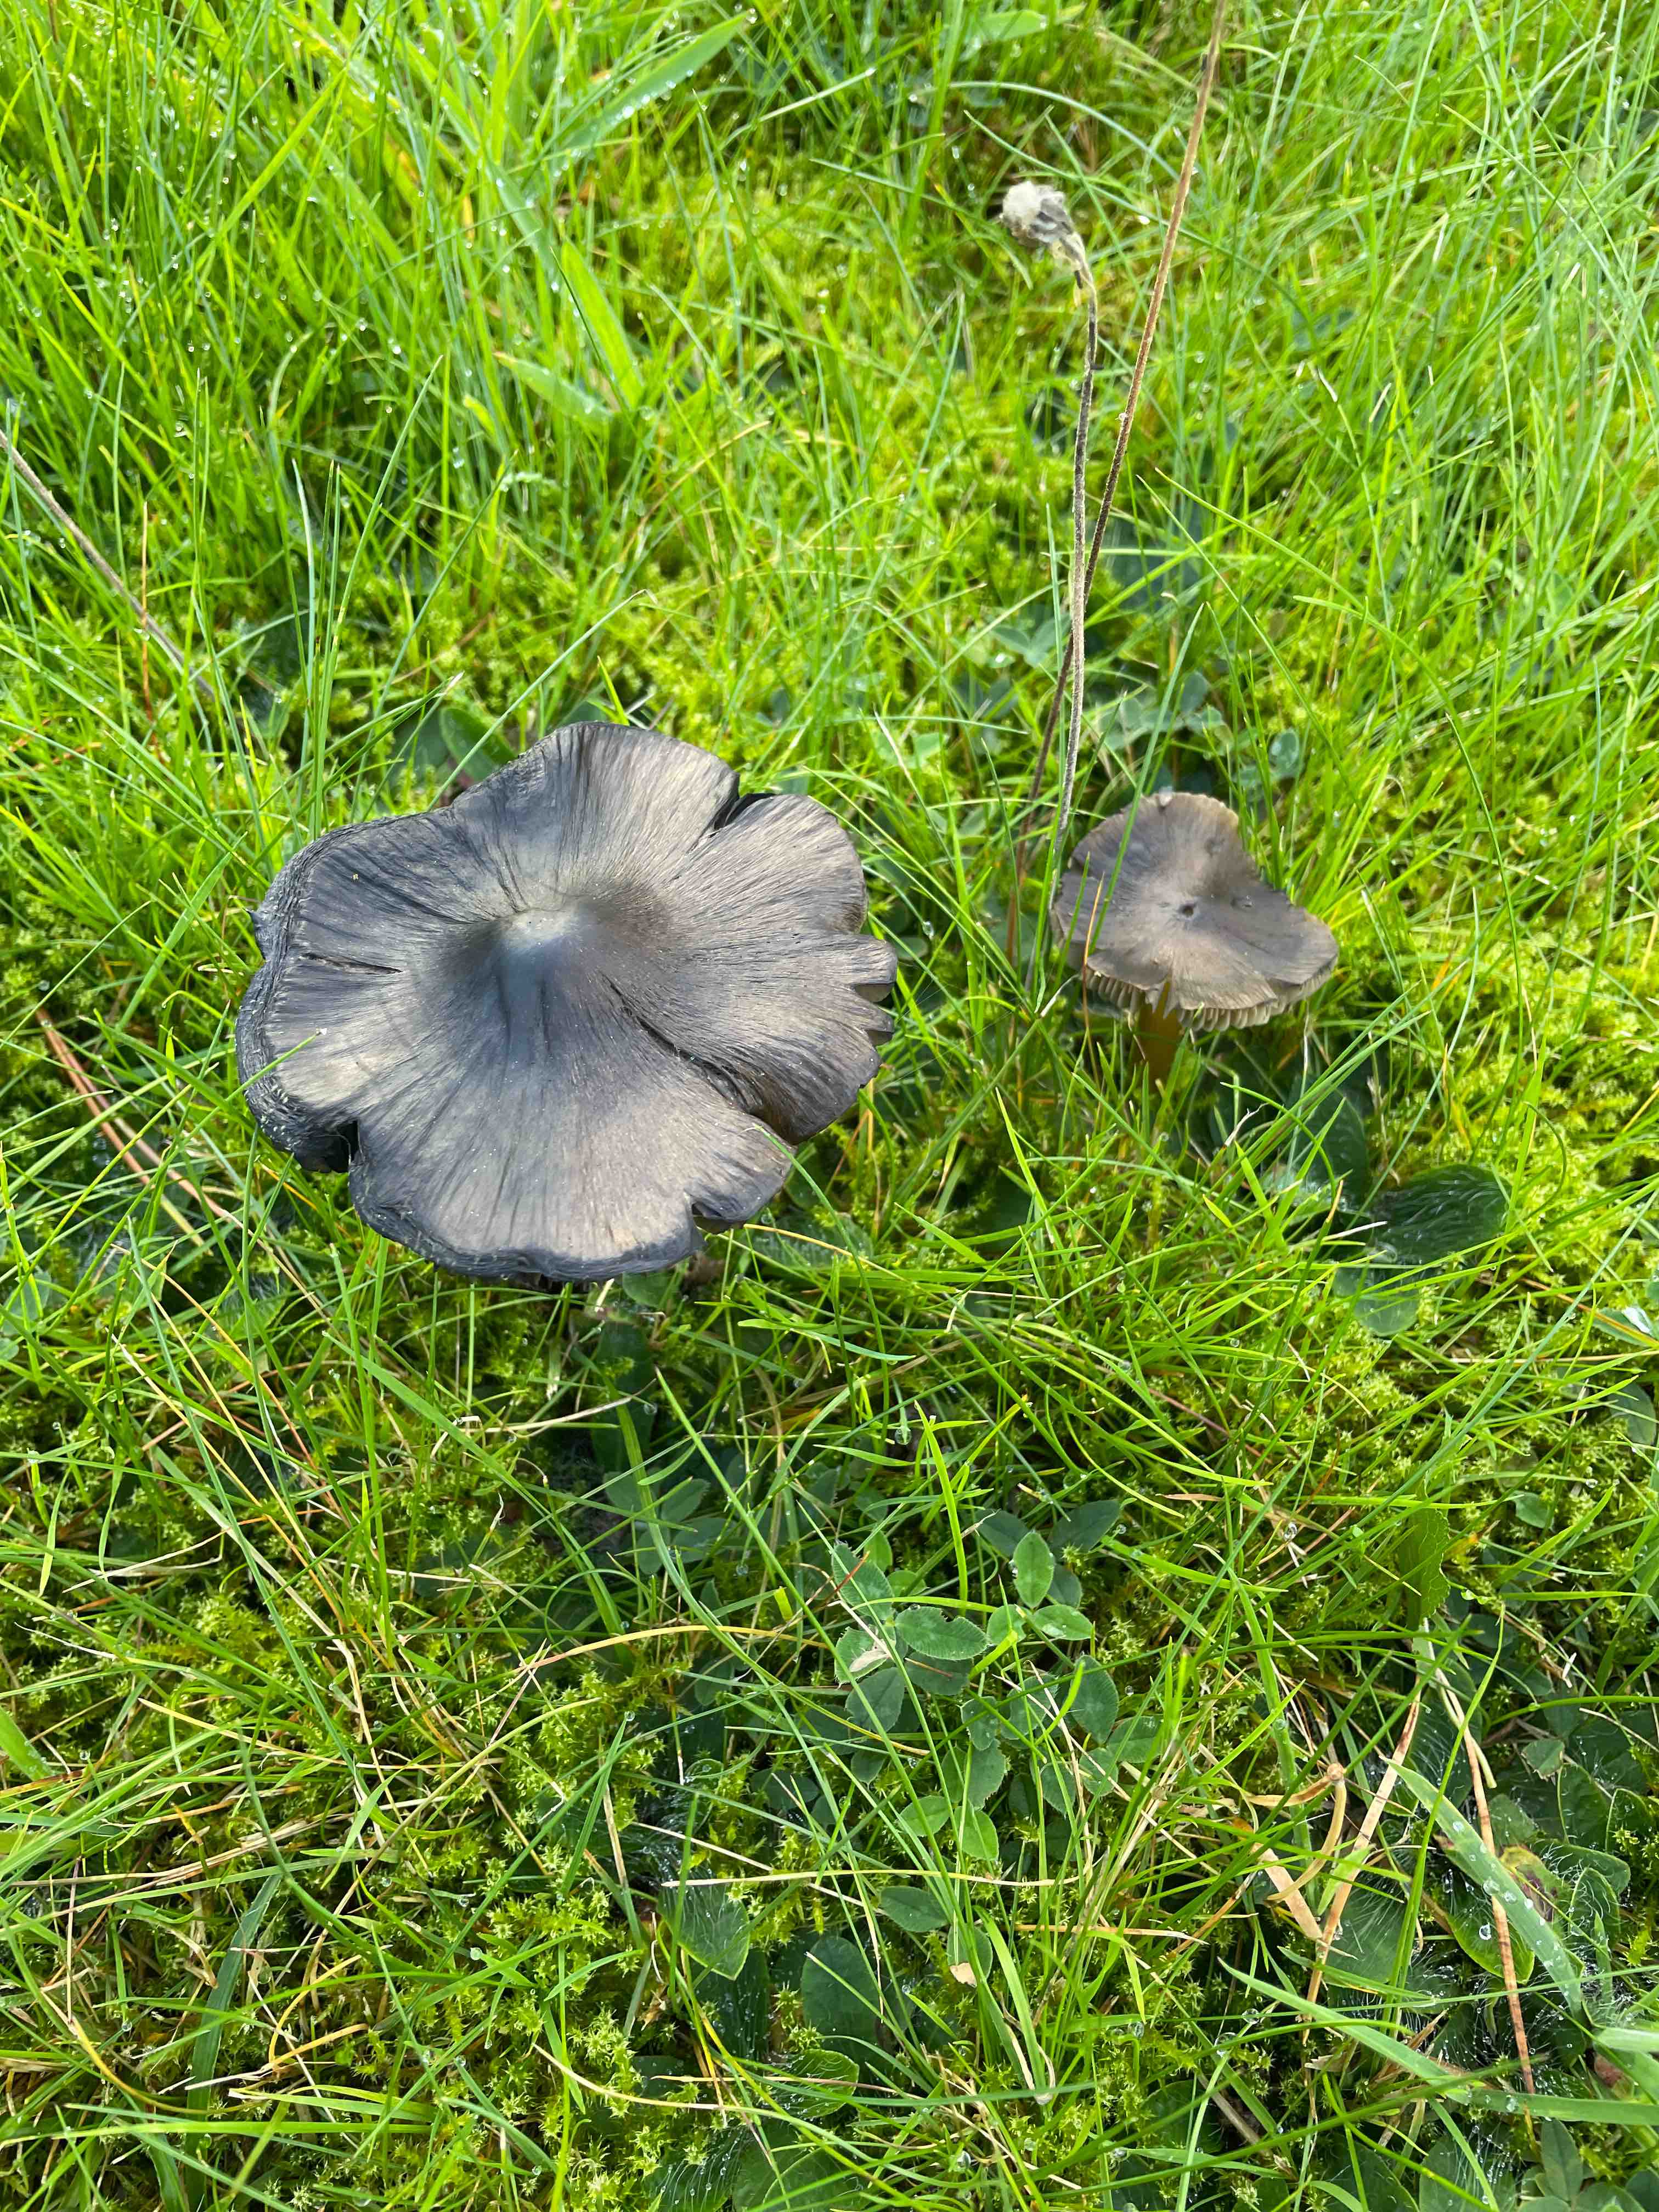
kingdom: Fungi
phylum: Basidiomycota
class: Agaricomycetes
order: Agaricales
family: Hygrophoraceae
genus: Hygrocybe
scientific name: Hygrocybe conica
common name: kegle-vokshat
